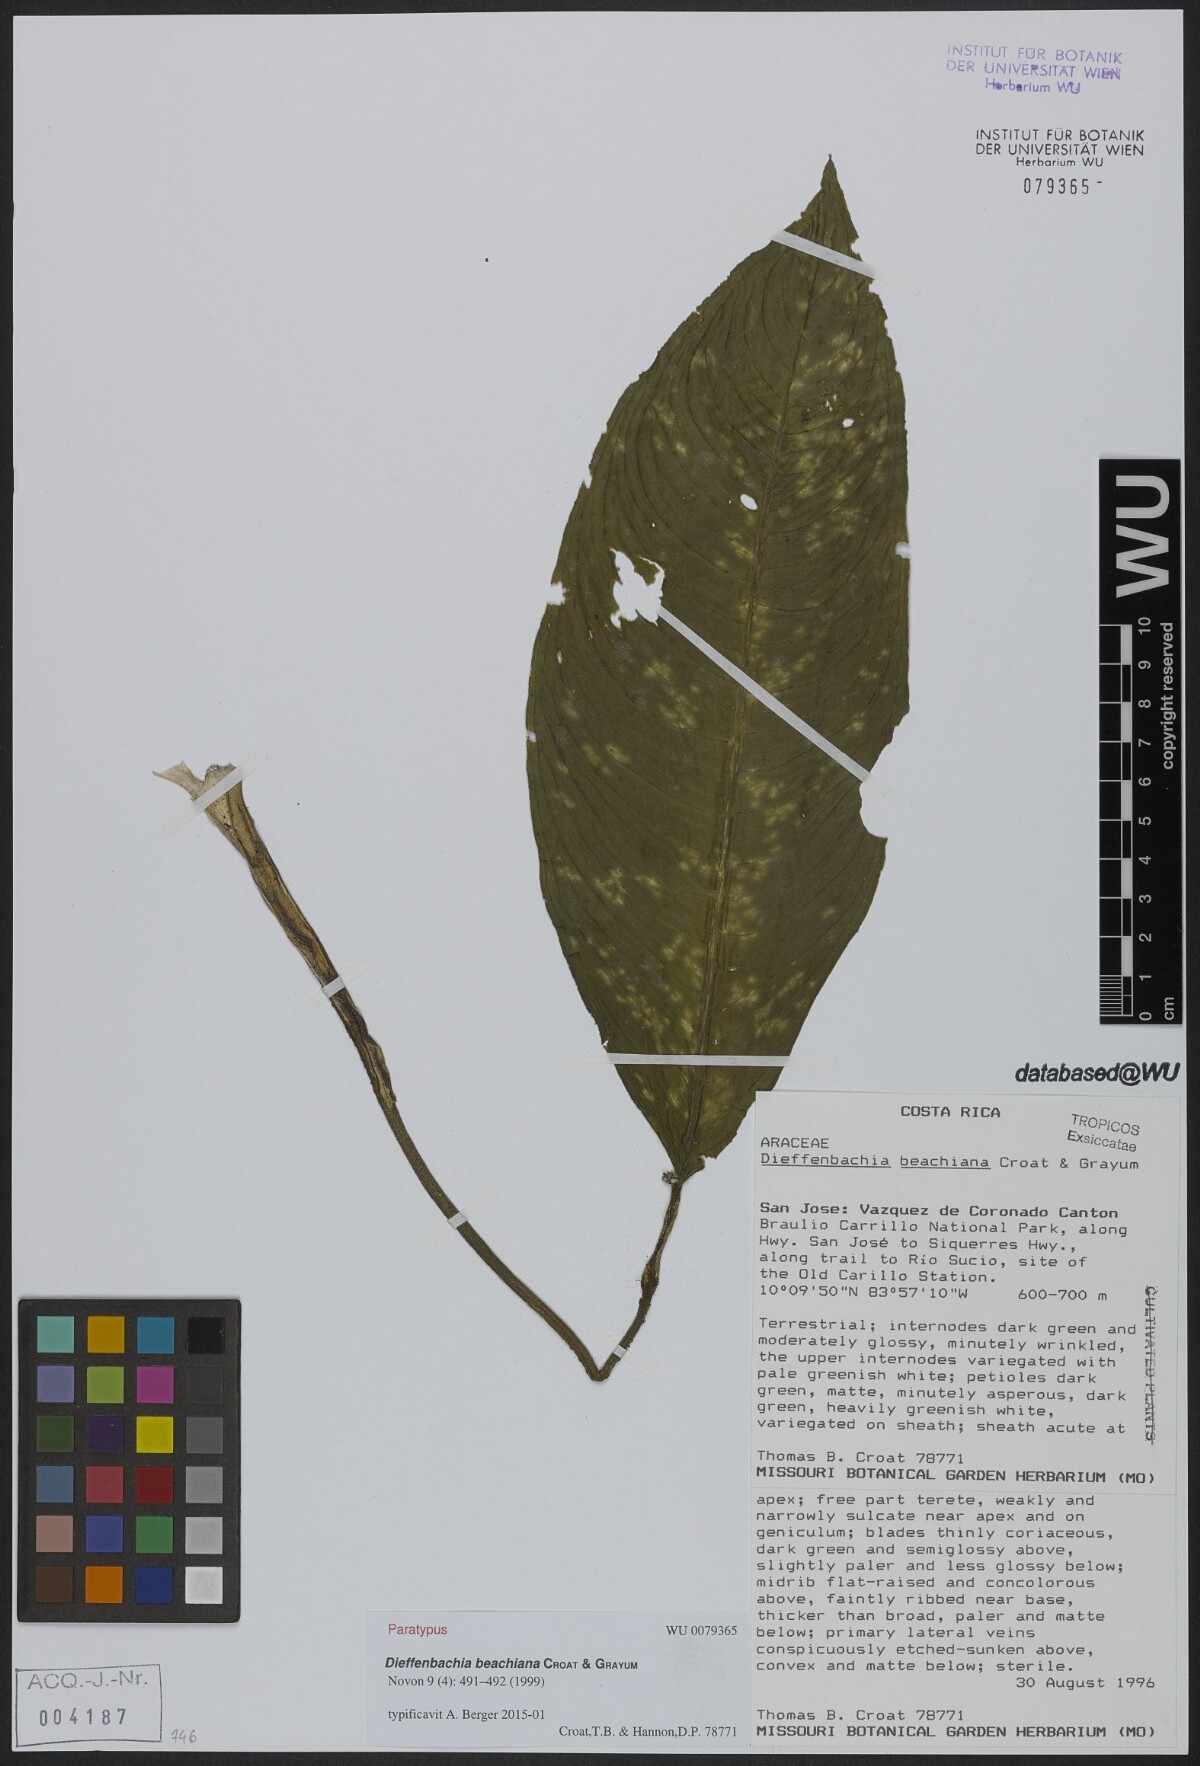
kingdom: Plantae
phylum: Tracheophyta
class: Liliopsida
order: Alismatales
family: Araceae
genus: Dieffenbachia
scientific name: Dieffenbachia beachiana
